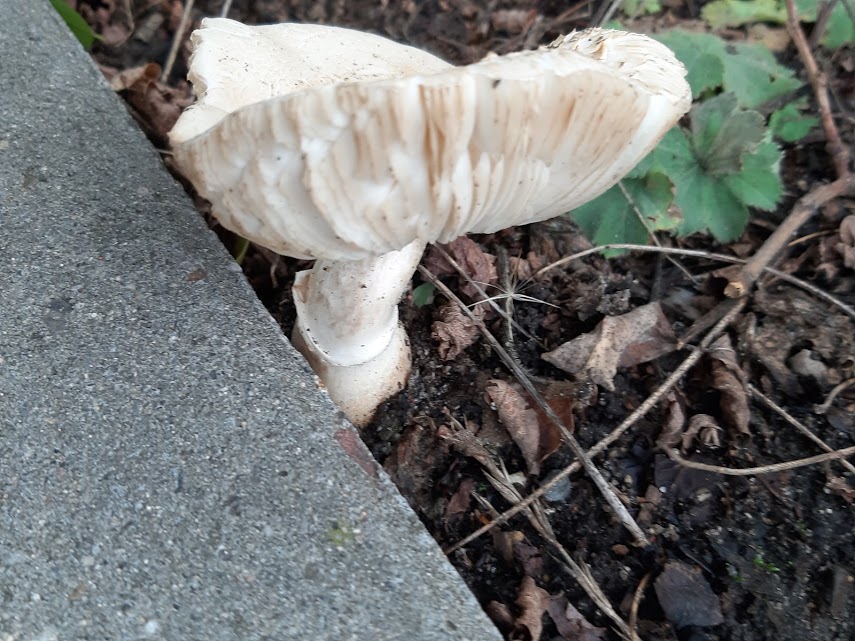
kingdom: Fungi
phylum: Basidiomycota
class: Agaricomycetes
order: Agaricales
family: Agaricaceae
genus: Leucoagaricus
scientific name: Leucoagaricus
